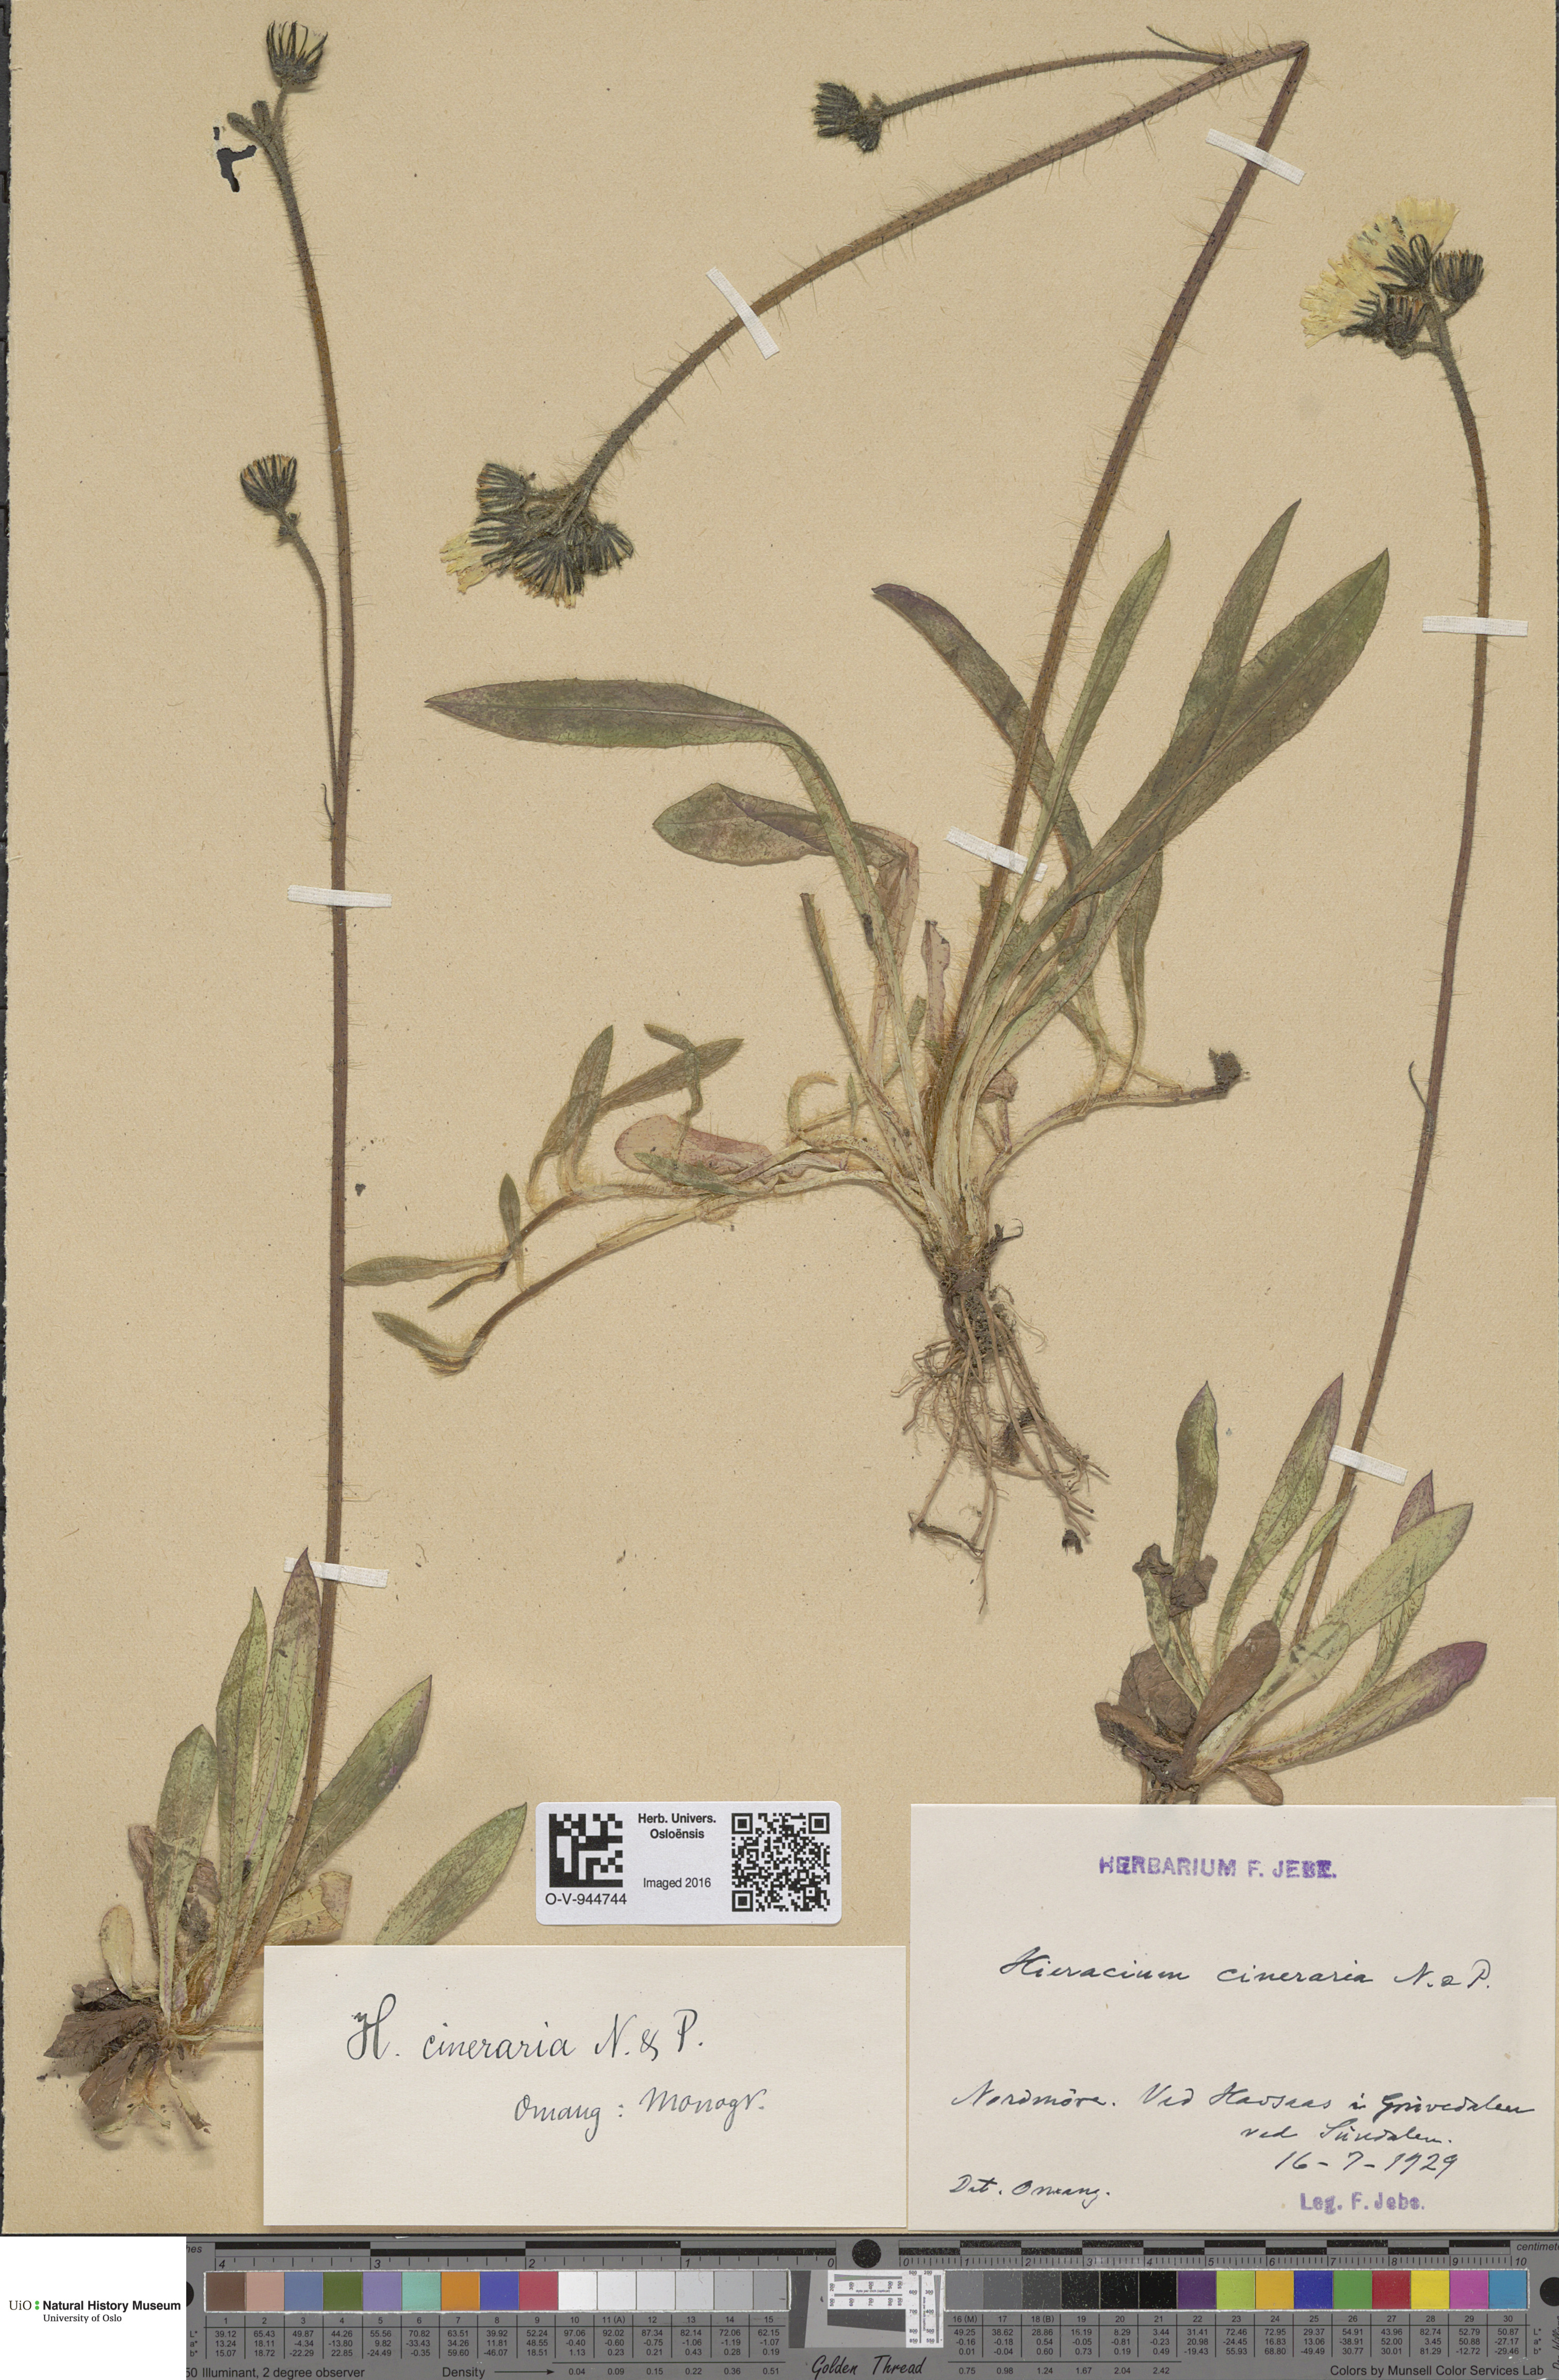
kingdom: Plantae
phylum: Tracheophyta
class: Magnoliopsida
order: Asterales
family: Asteraceae
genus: Pilosella
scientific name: Pilosella moechiadia
